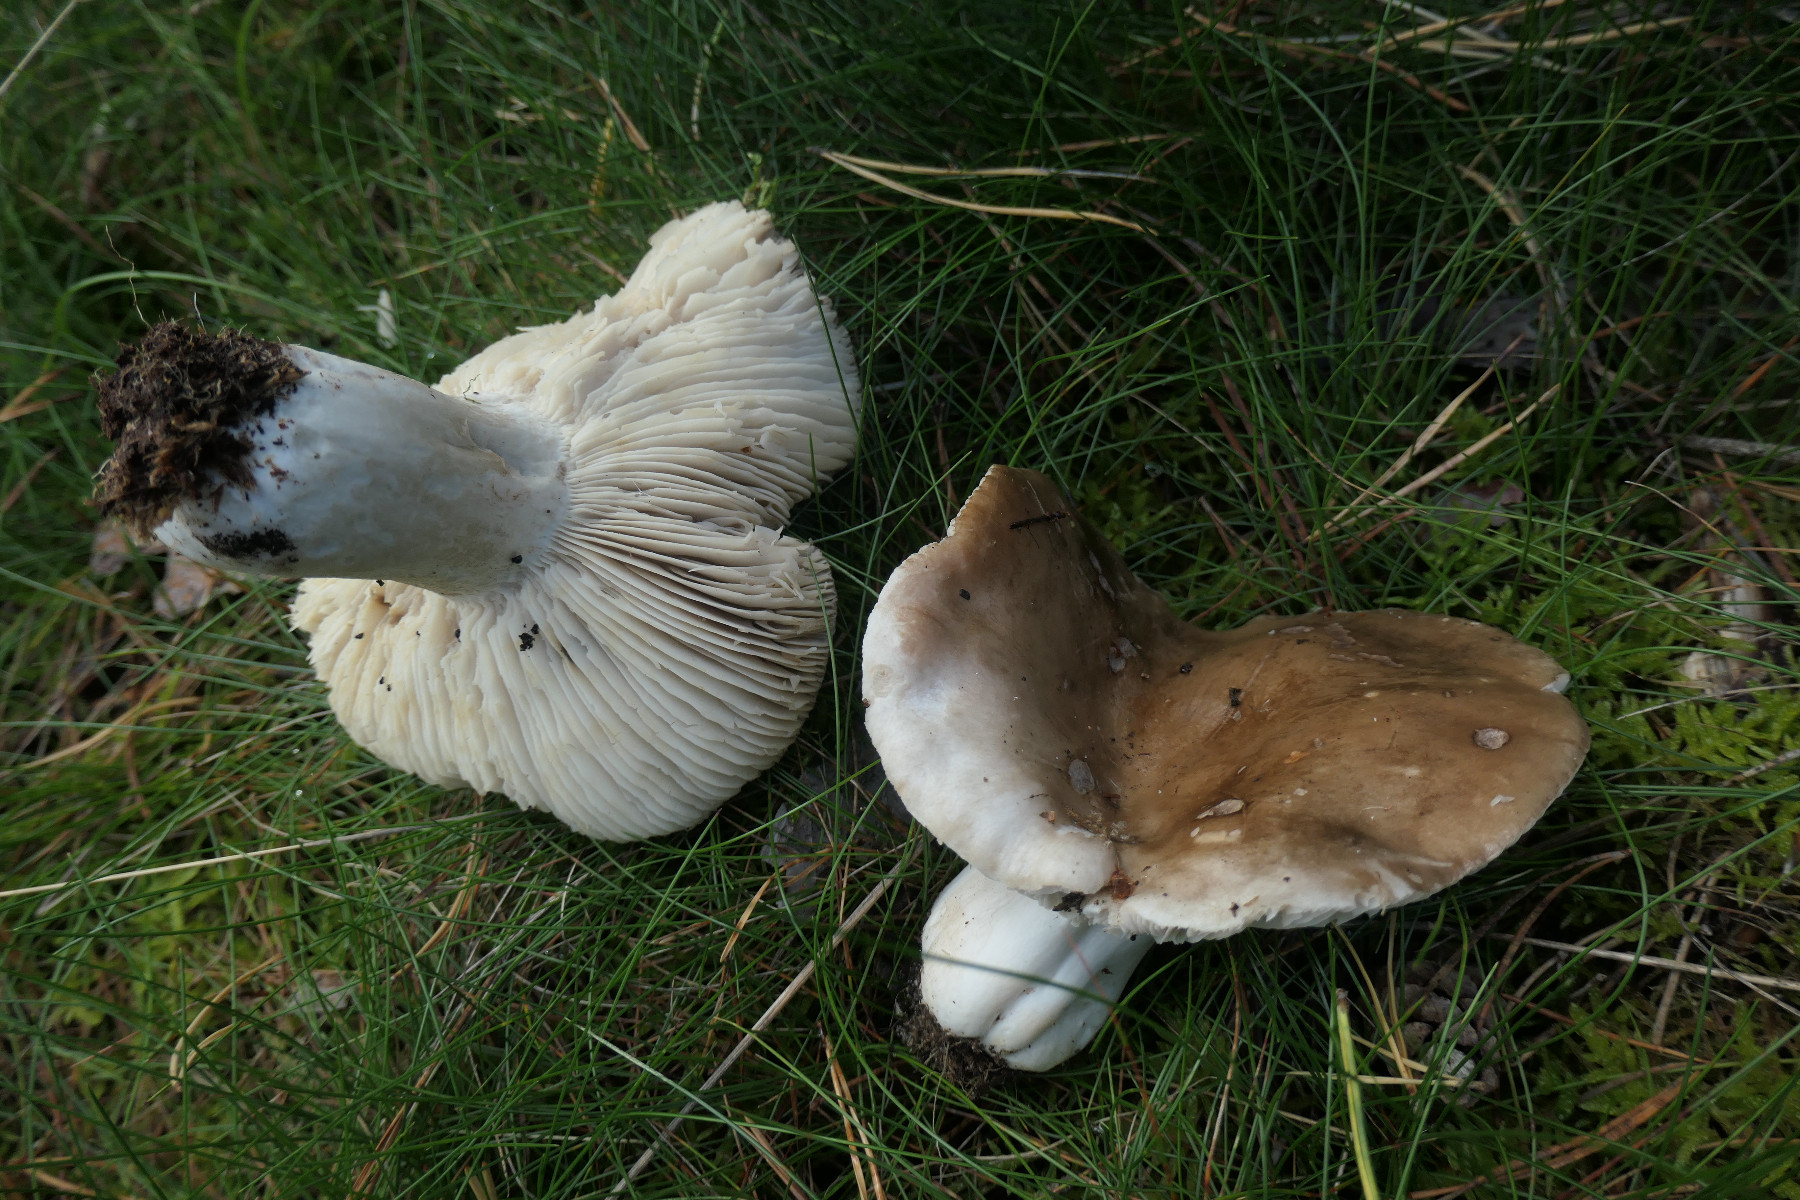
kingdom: Fungi
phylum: Basidiomycota
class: Agaricomycetes
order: Russulales
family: Russulaceae
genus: Russula
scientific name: Russula adusta
